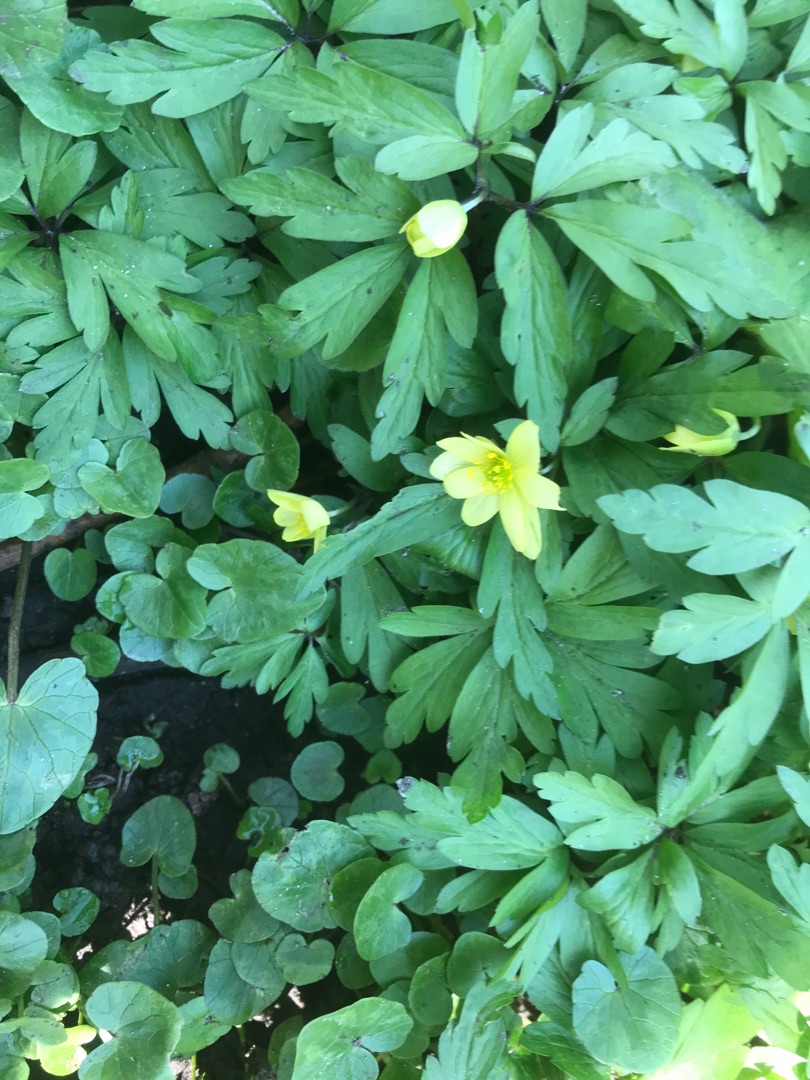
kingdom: Plantae
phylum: Tracheophyta
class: Magnoliopsida
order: Ranunculales
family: Ranunculaceae
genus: Anemone
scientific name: Anemone
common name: Svovlgul anemone
